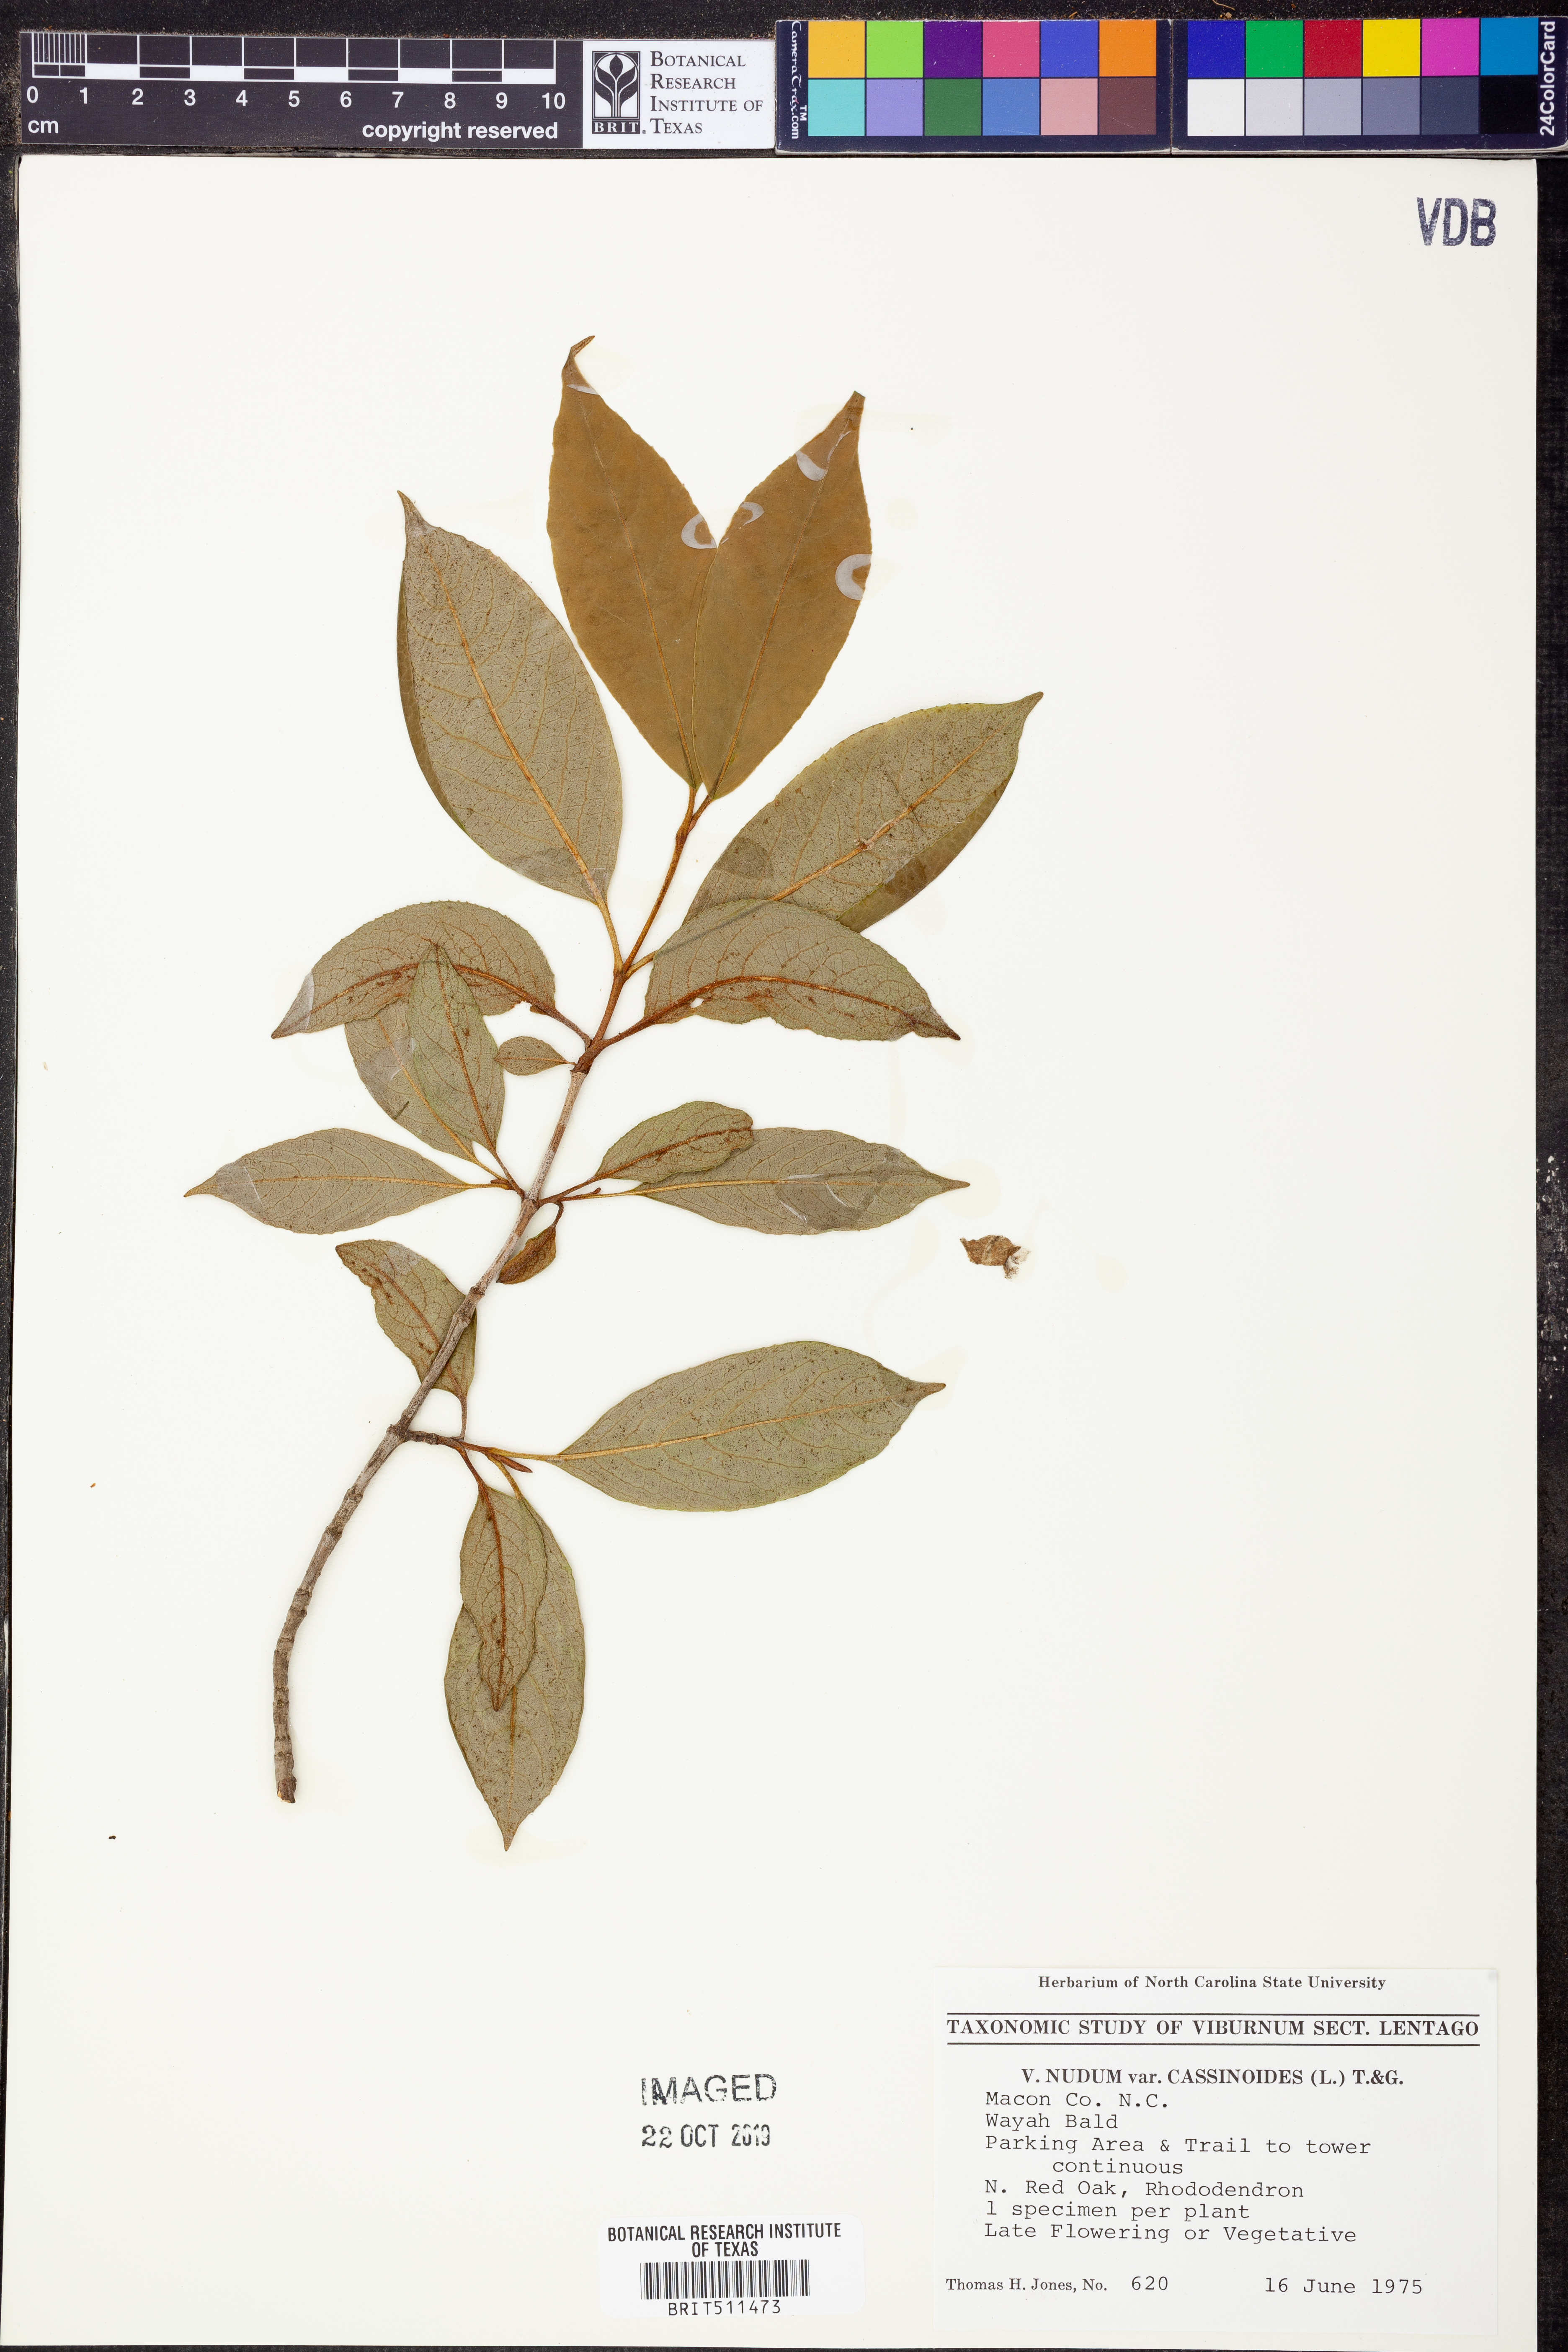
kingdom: Plantae
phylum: Tracheophyta
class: Magnoliopsida
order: Dipsacales
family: Viburnaceae
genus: Viburnum
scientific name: Viburnum cassinoides
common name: Swamp haw
